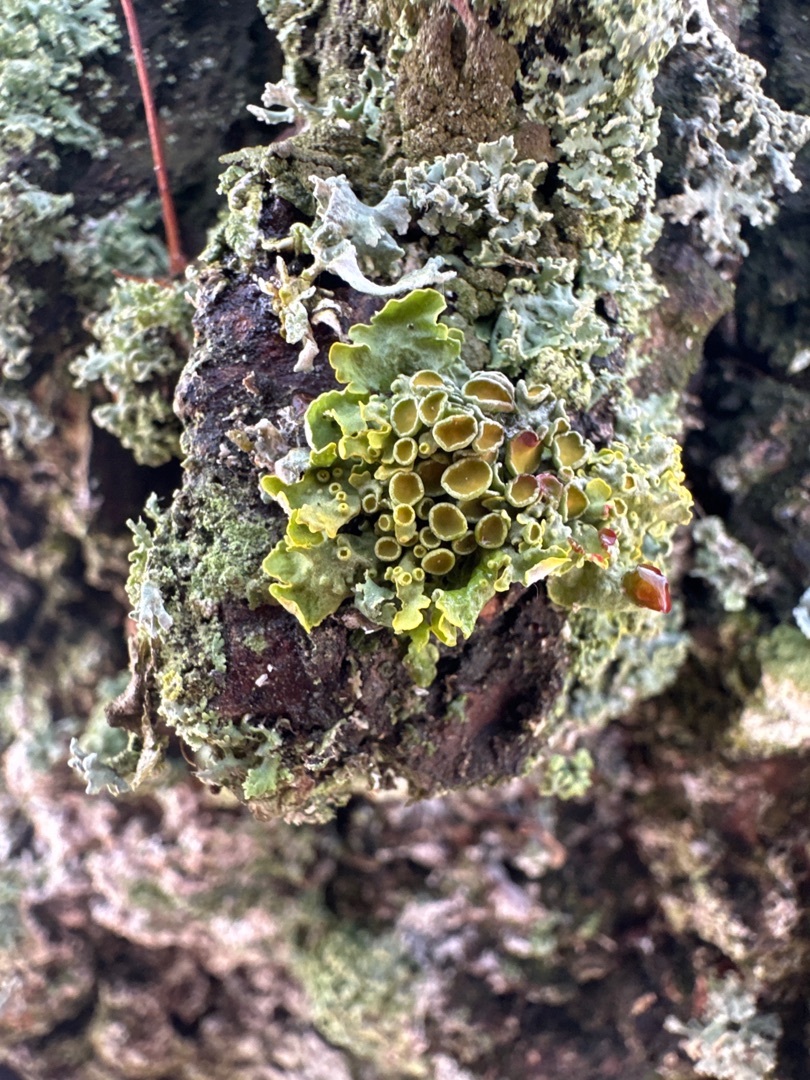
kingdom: Fungi
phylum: Ascomycota
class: Lecanoromycetes
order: Teloschistales
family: Teloschistaceae
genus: Xanthoria
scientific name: Xanthoria parietina
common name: Almindelig væggelav
